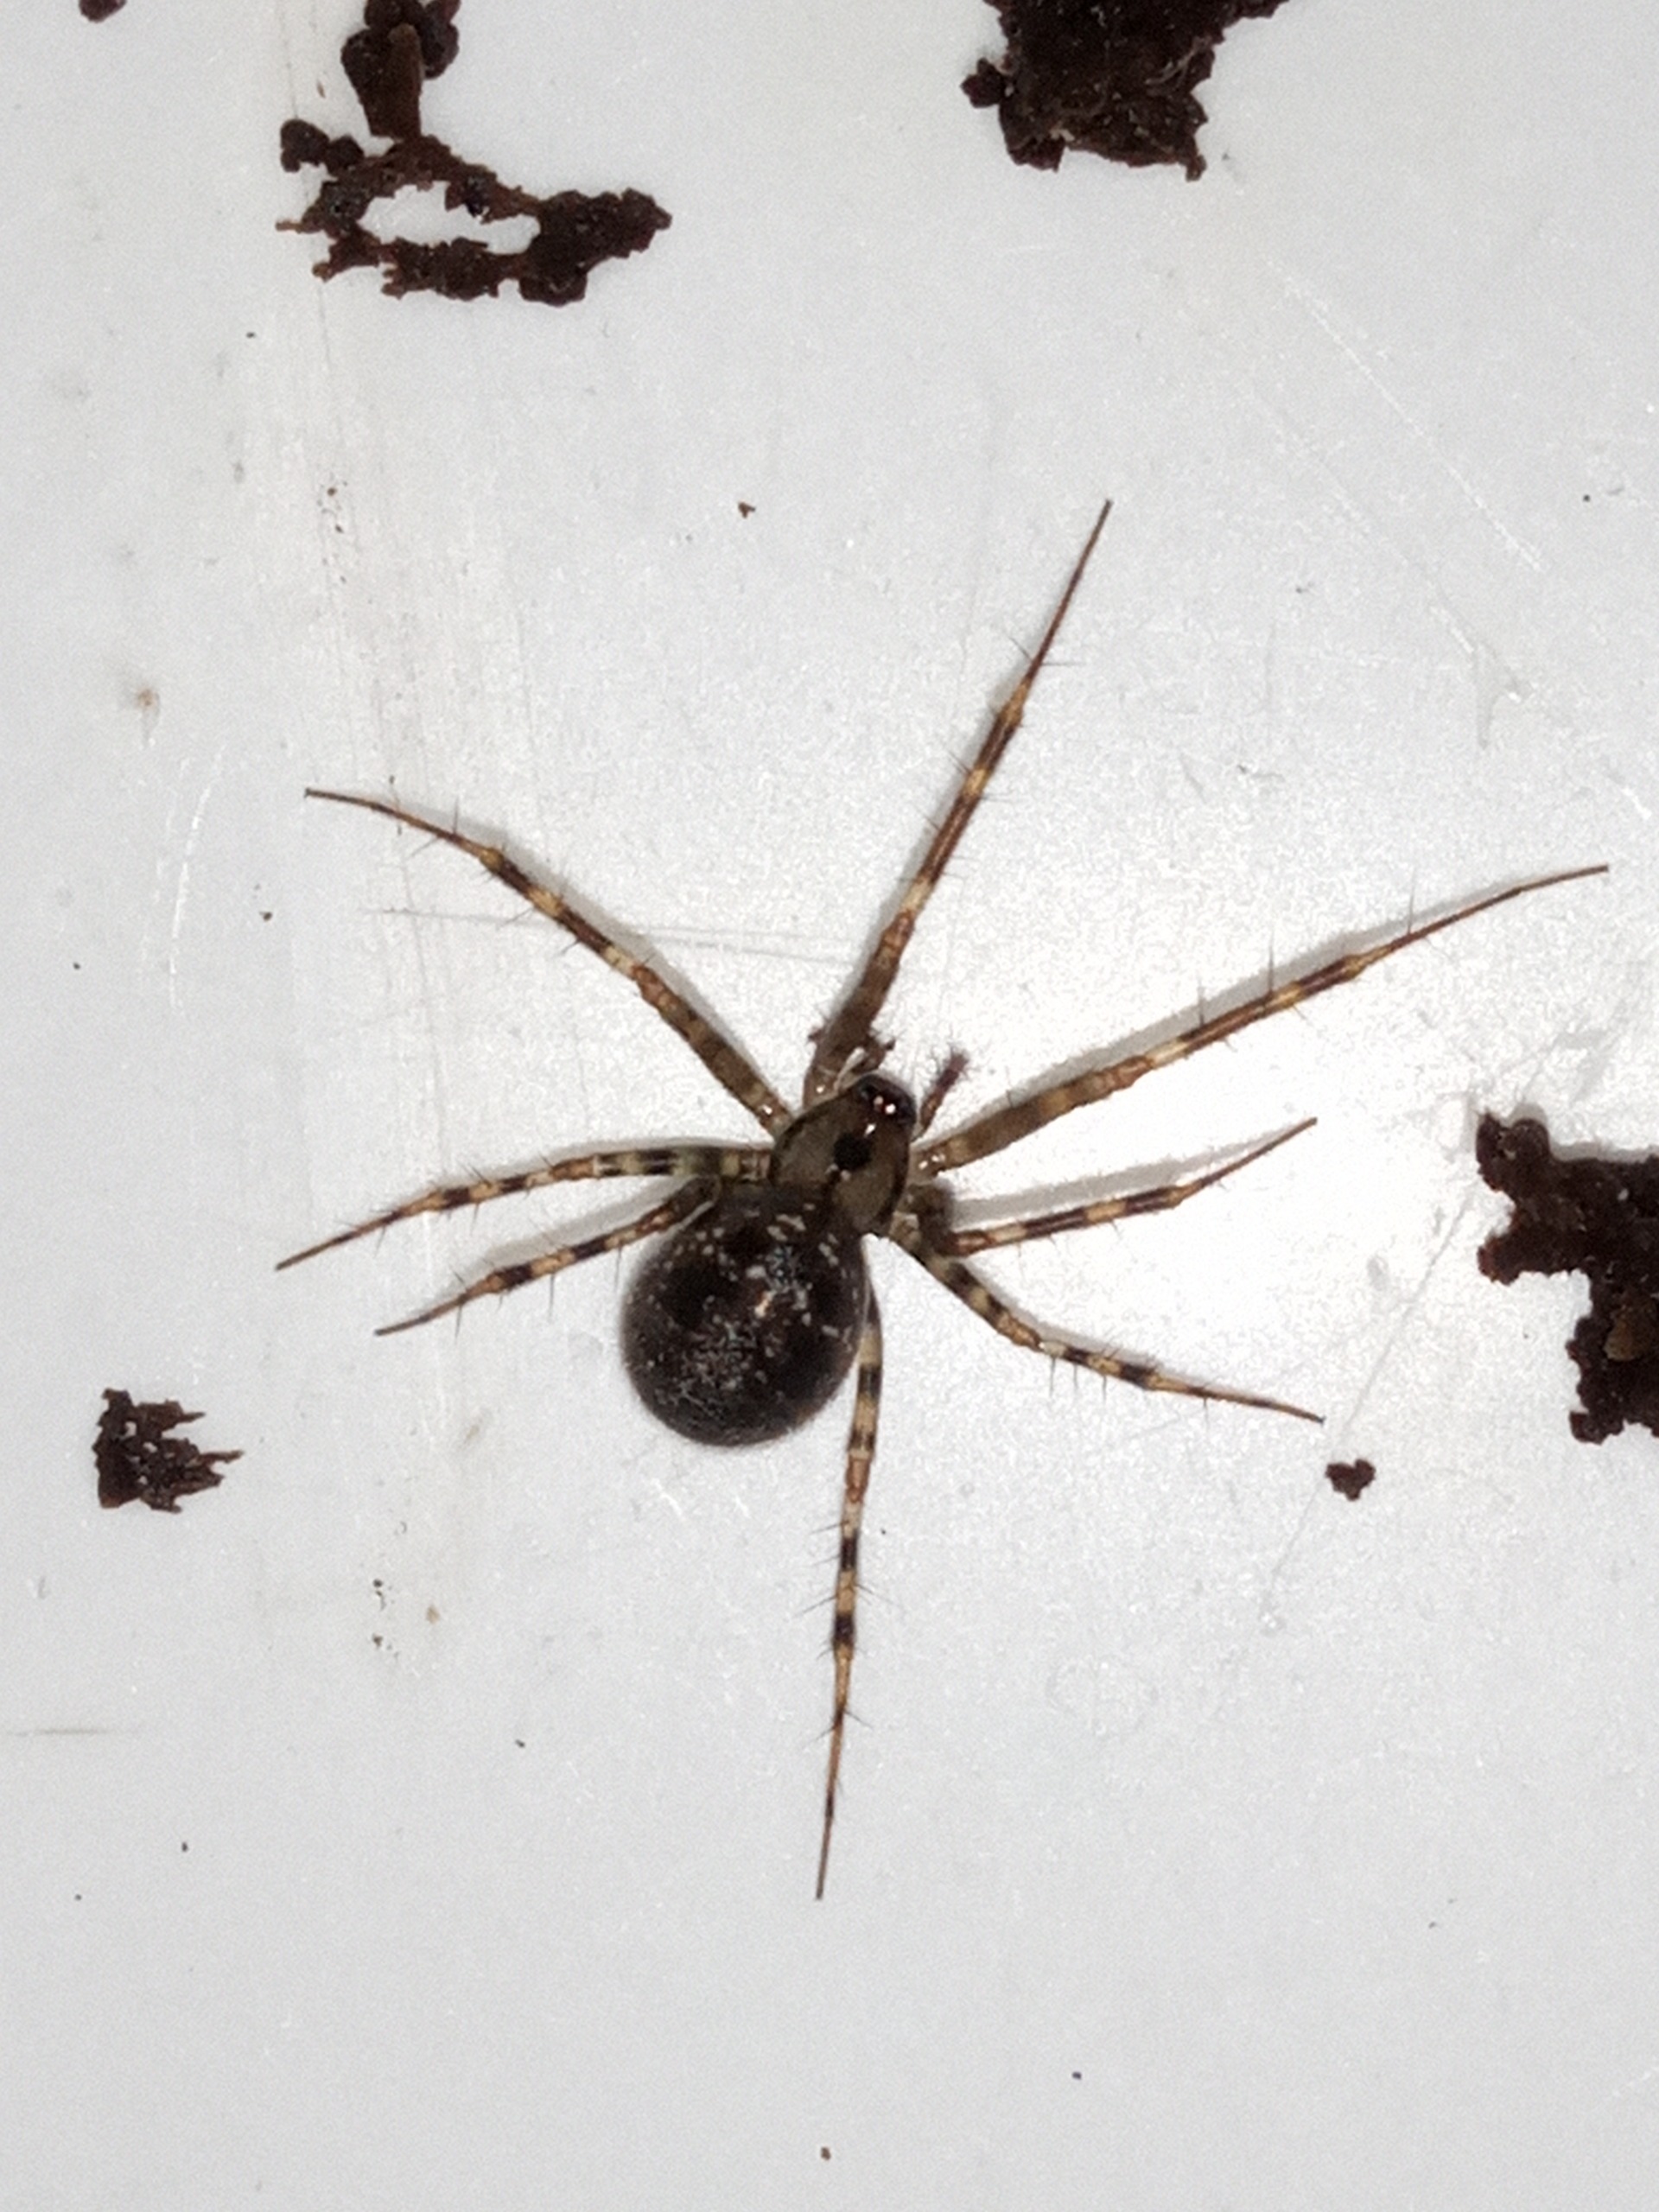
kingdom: Animalia
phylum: Arthropoda
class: Arachnida
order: Araneae
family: Linyphiidae
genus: Labulla
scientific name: Labulla thoracica
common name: Stubbaldakinspinder
